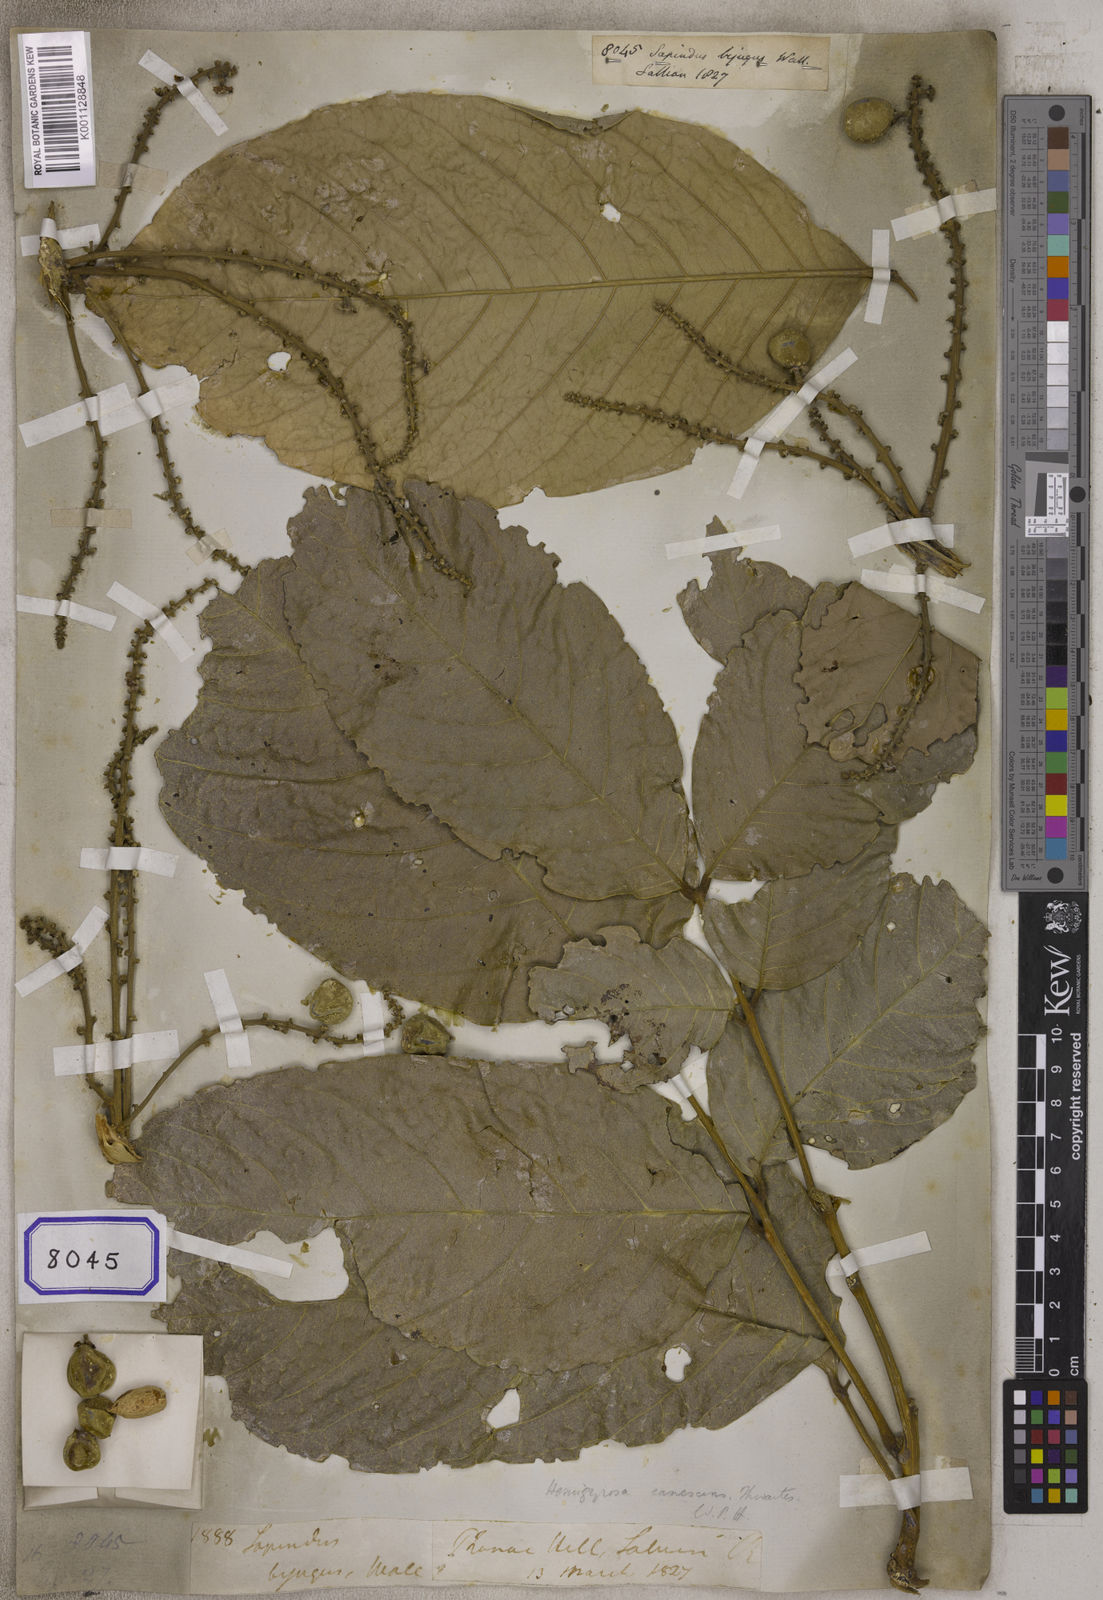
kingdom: Plantae
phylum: Tracheophyta
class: Magnoliopsida
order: Sapindales
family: Sapindaceae
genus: Lepisanthes
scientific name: Lepisanthes tetraphylla
